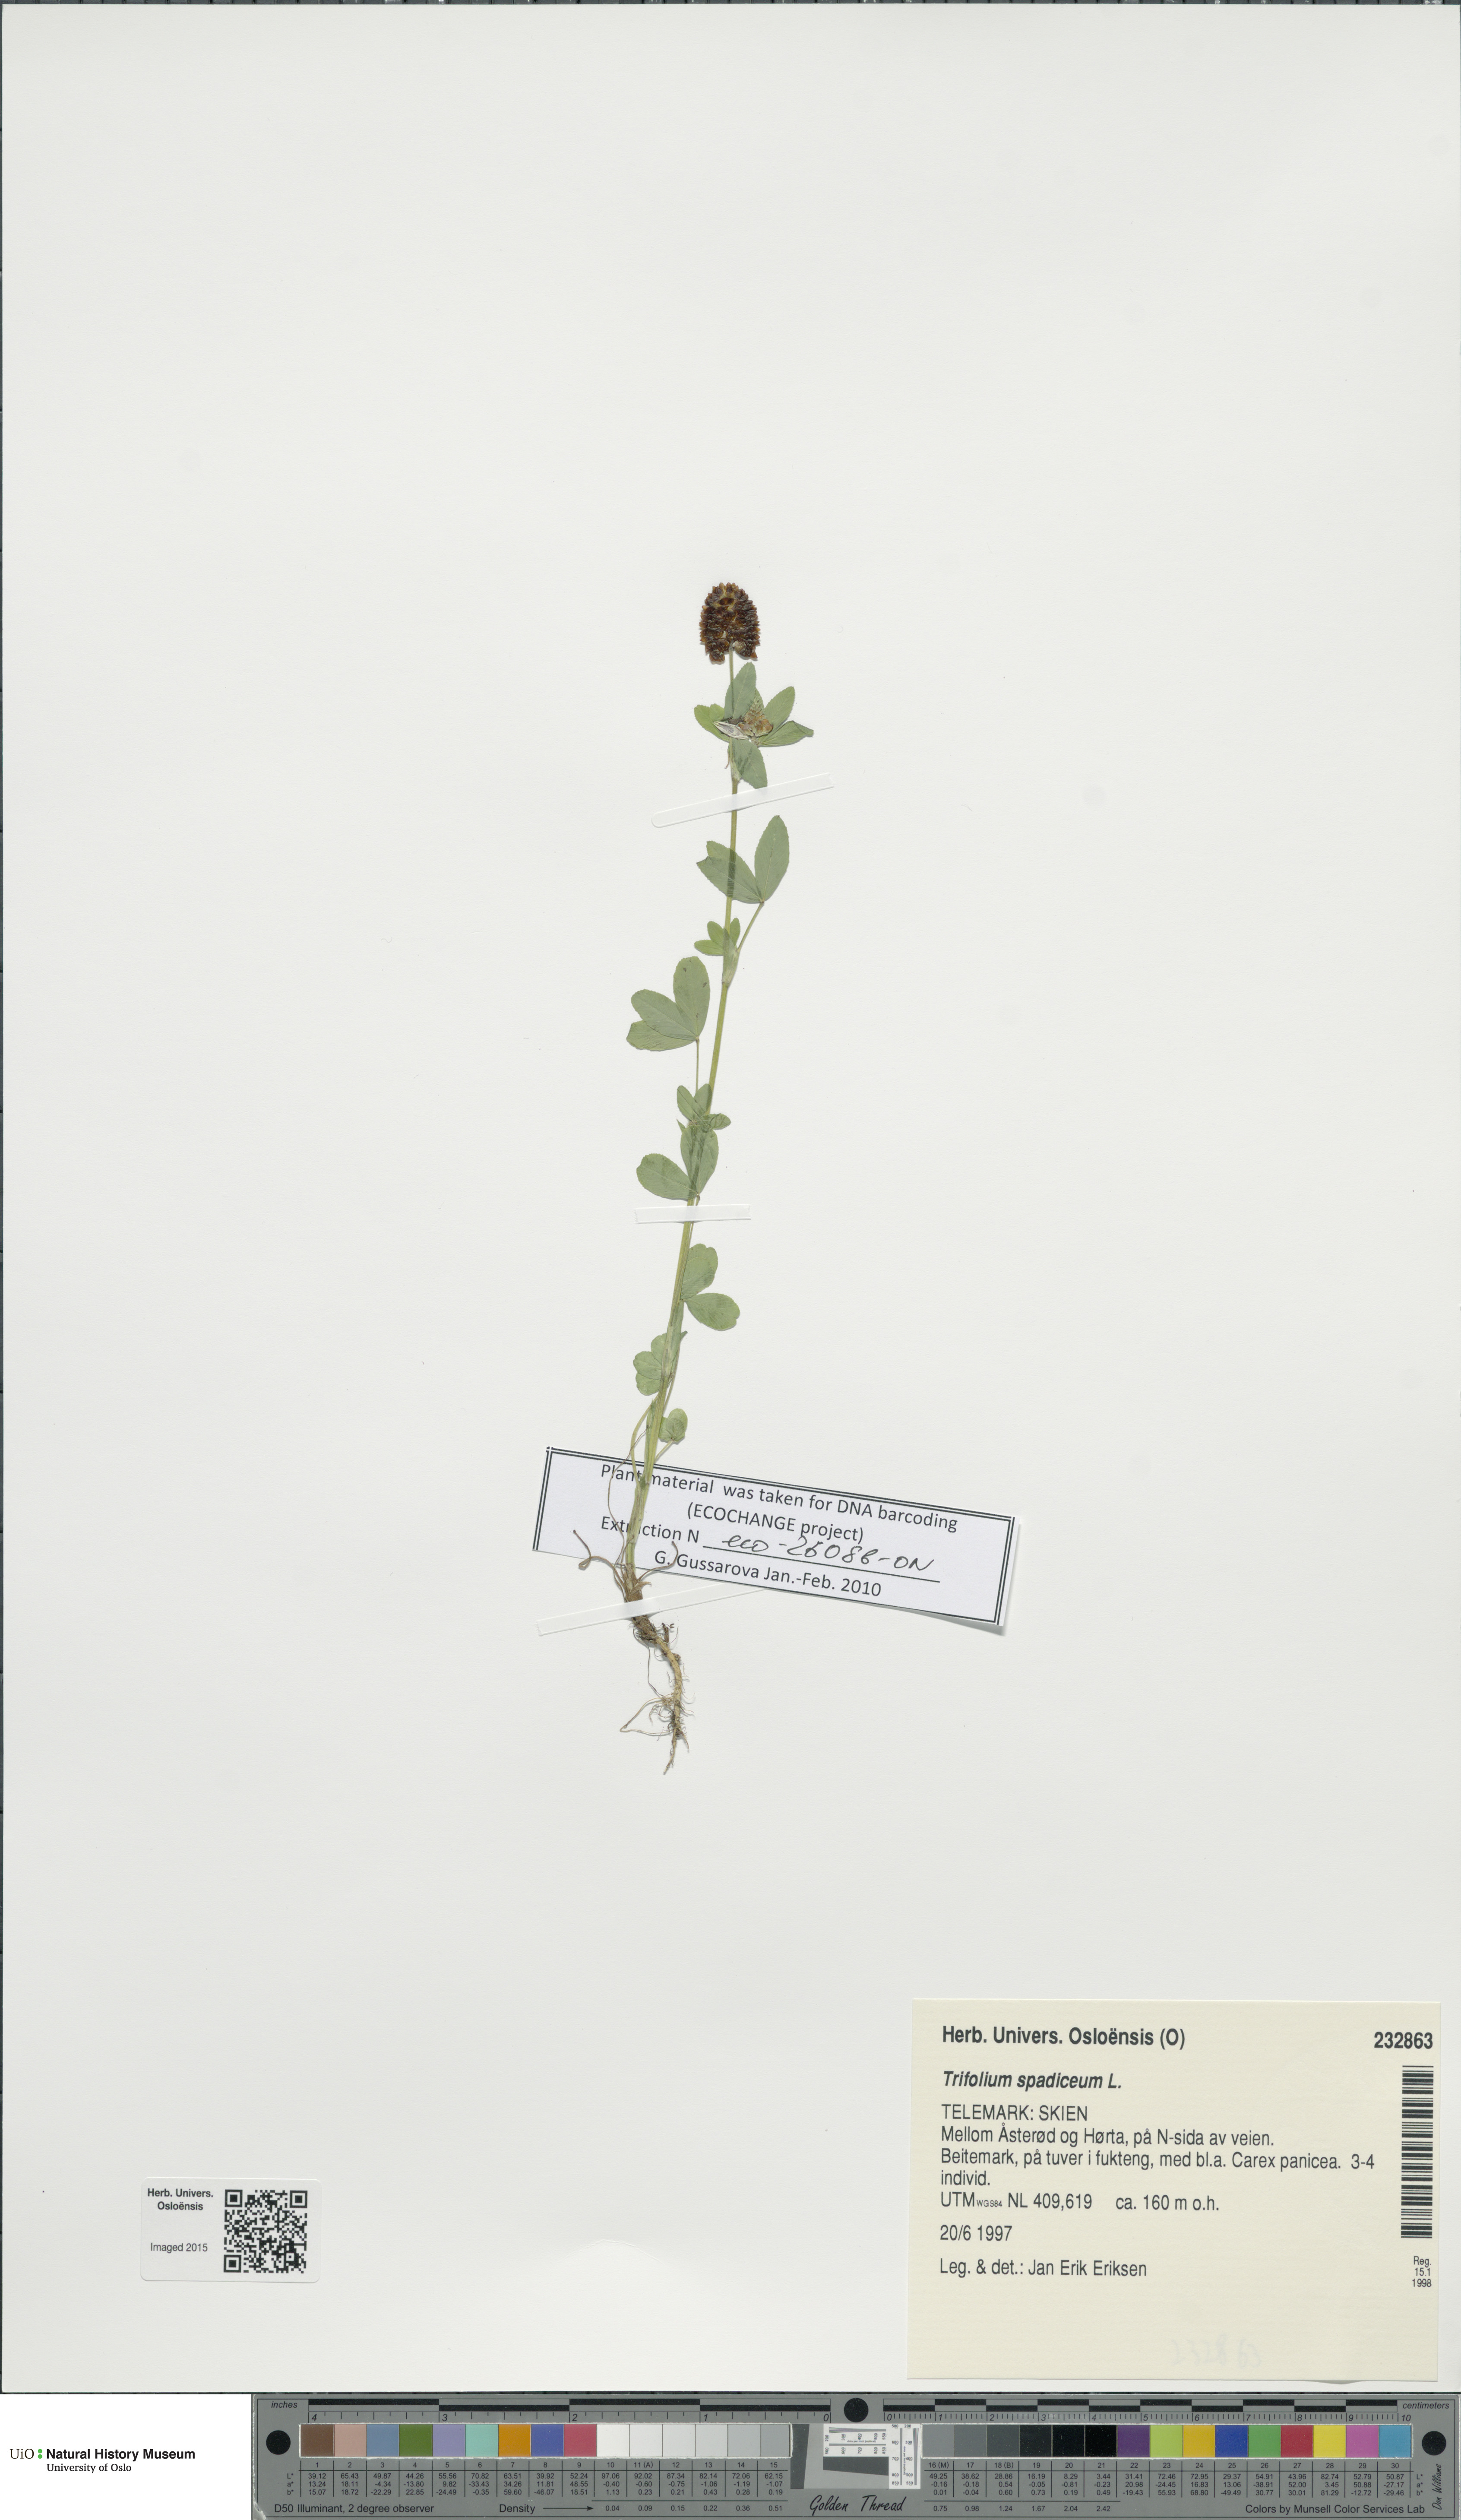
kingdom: Plantae
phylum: Tracheophyta
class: Magnoliopsida
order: Fabales
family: Fabaceae
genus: Trifolium
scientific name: Trifolium spadiceum
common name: Brown moor clover
